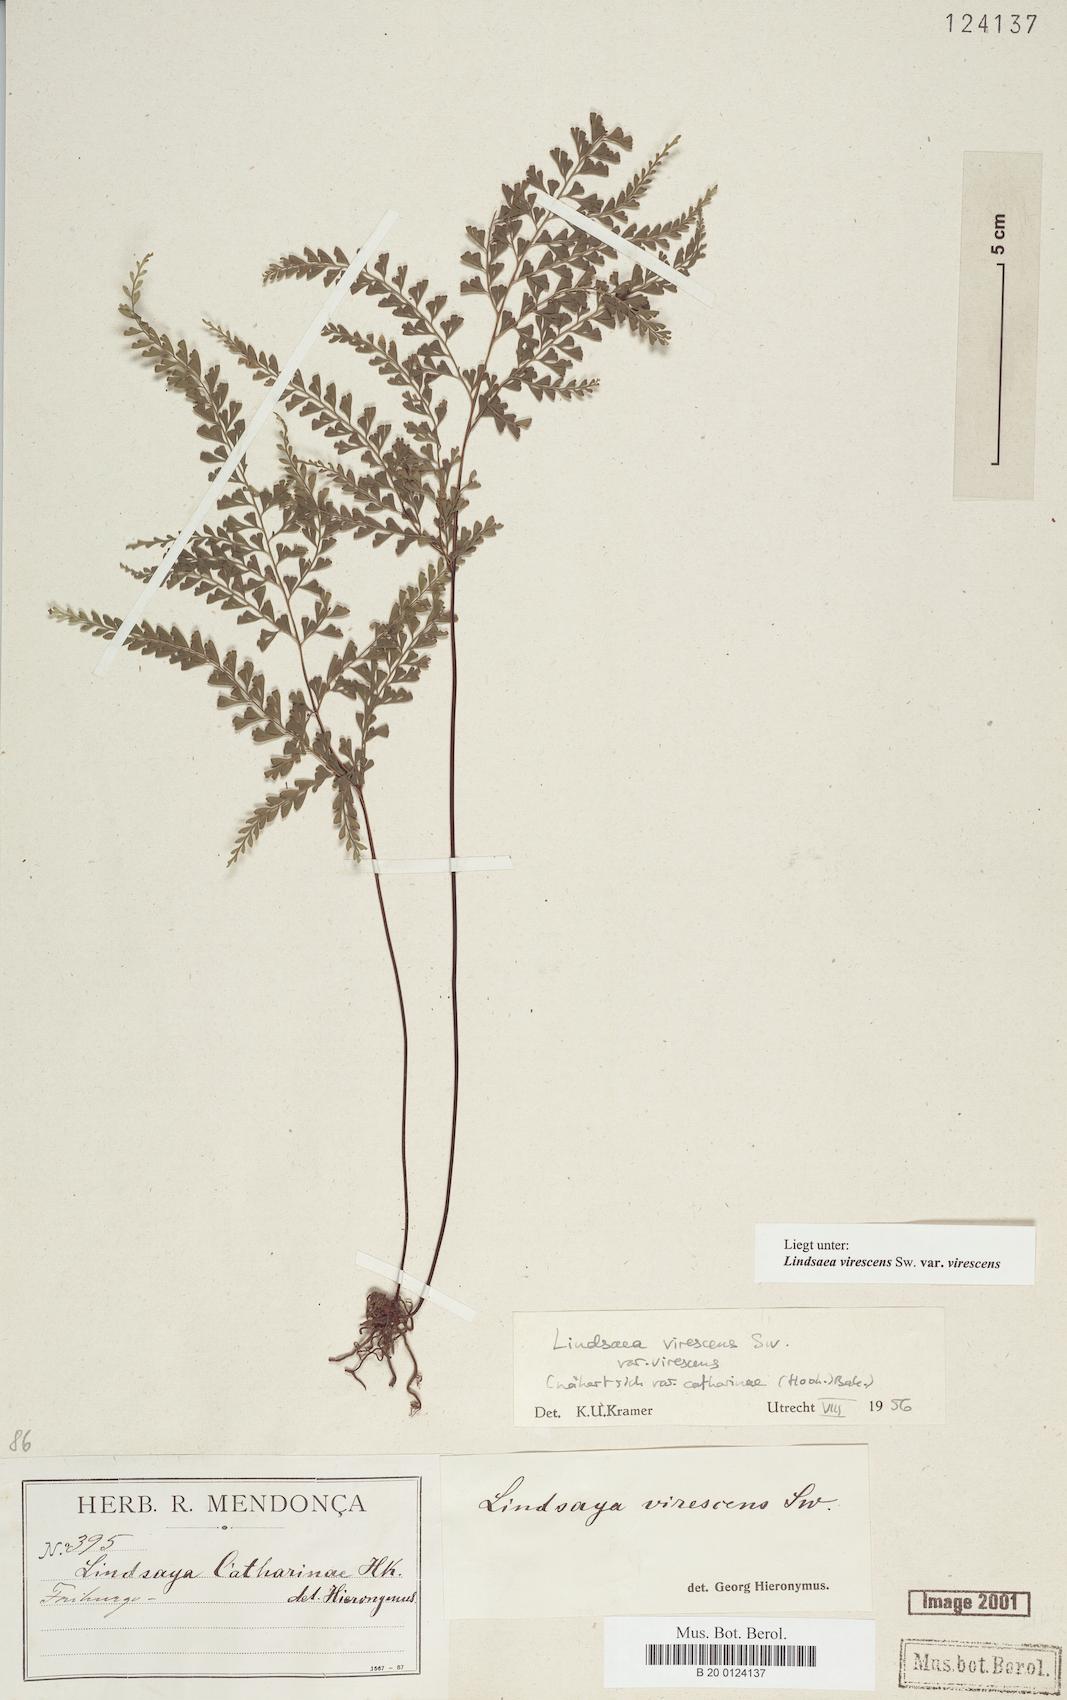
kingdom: Plantae
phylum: Tracheophyta
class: Polypodiopsida
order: Polypodiales
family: Lindsaeaceae
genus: Lindsaea
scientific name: Lindsaea virescens
